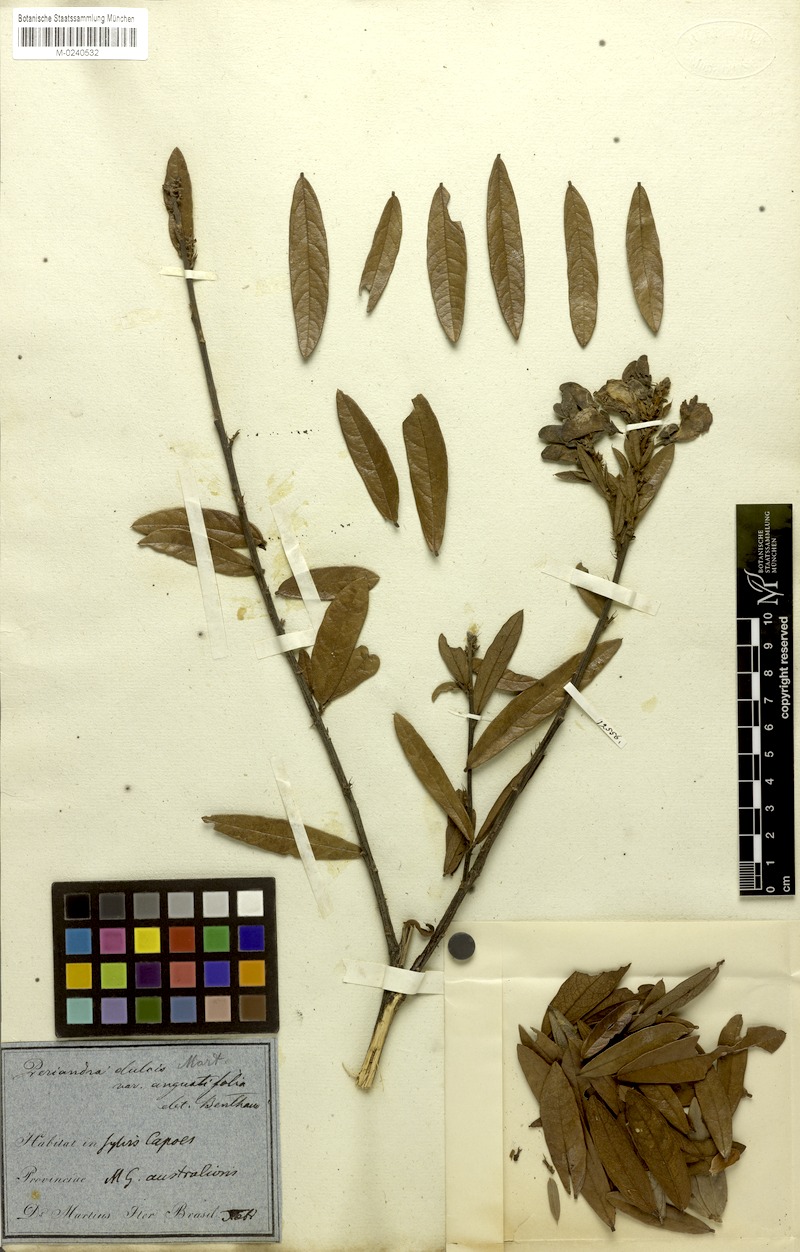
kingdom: Plantae
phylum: Tracheophyta
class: Magnoliopsida
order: Fabales
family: Fabaceae
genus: Periandra
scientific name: Periandra mediterranea
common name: Brazilian licorice
